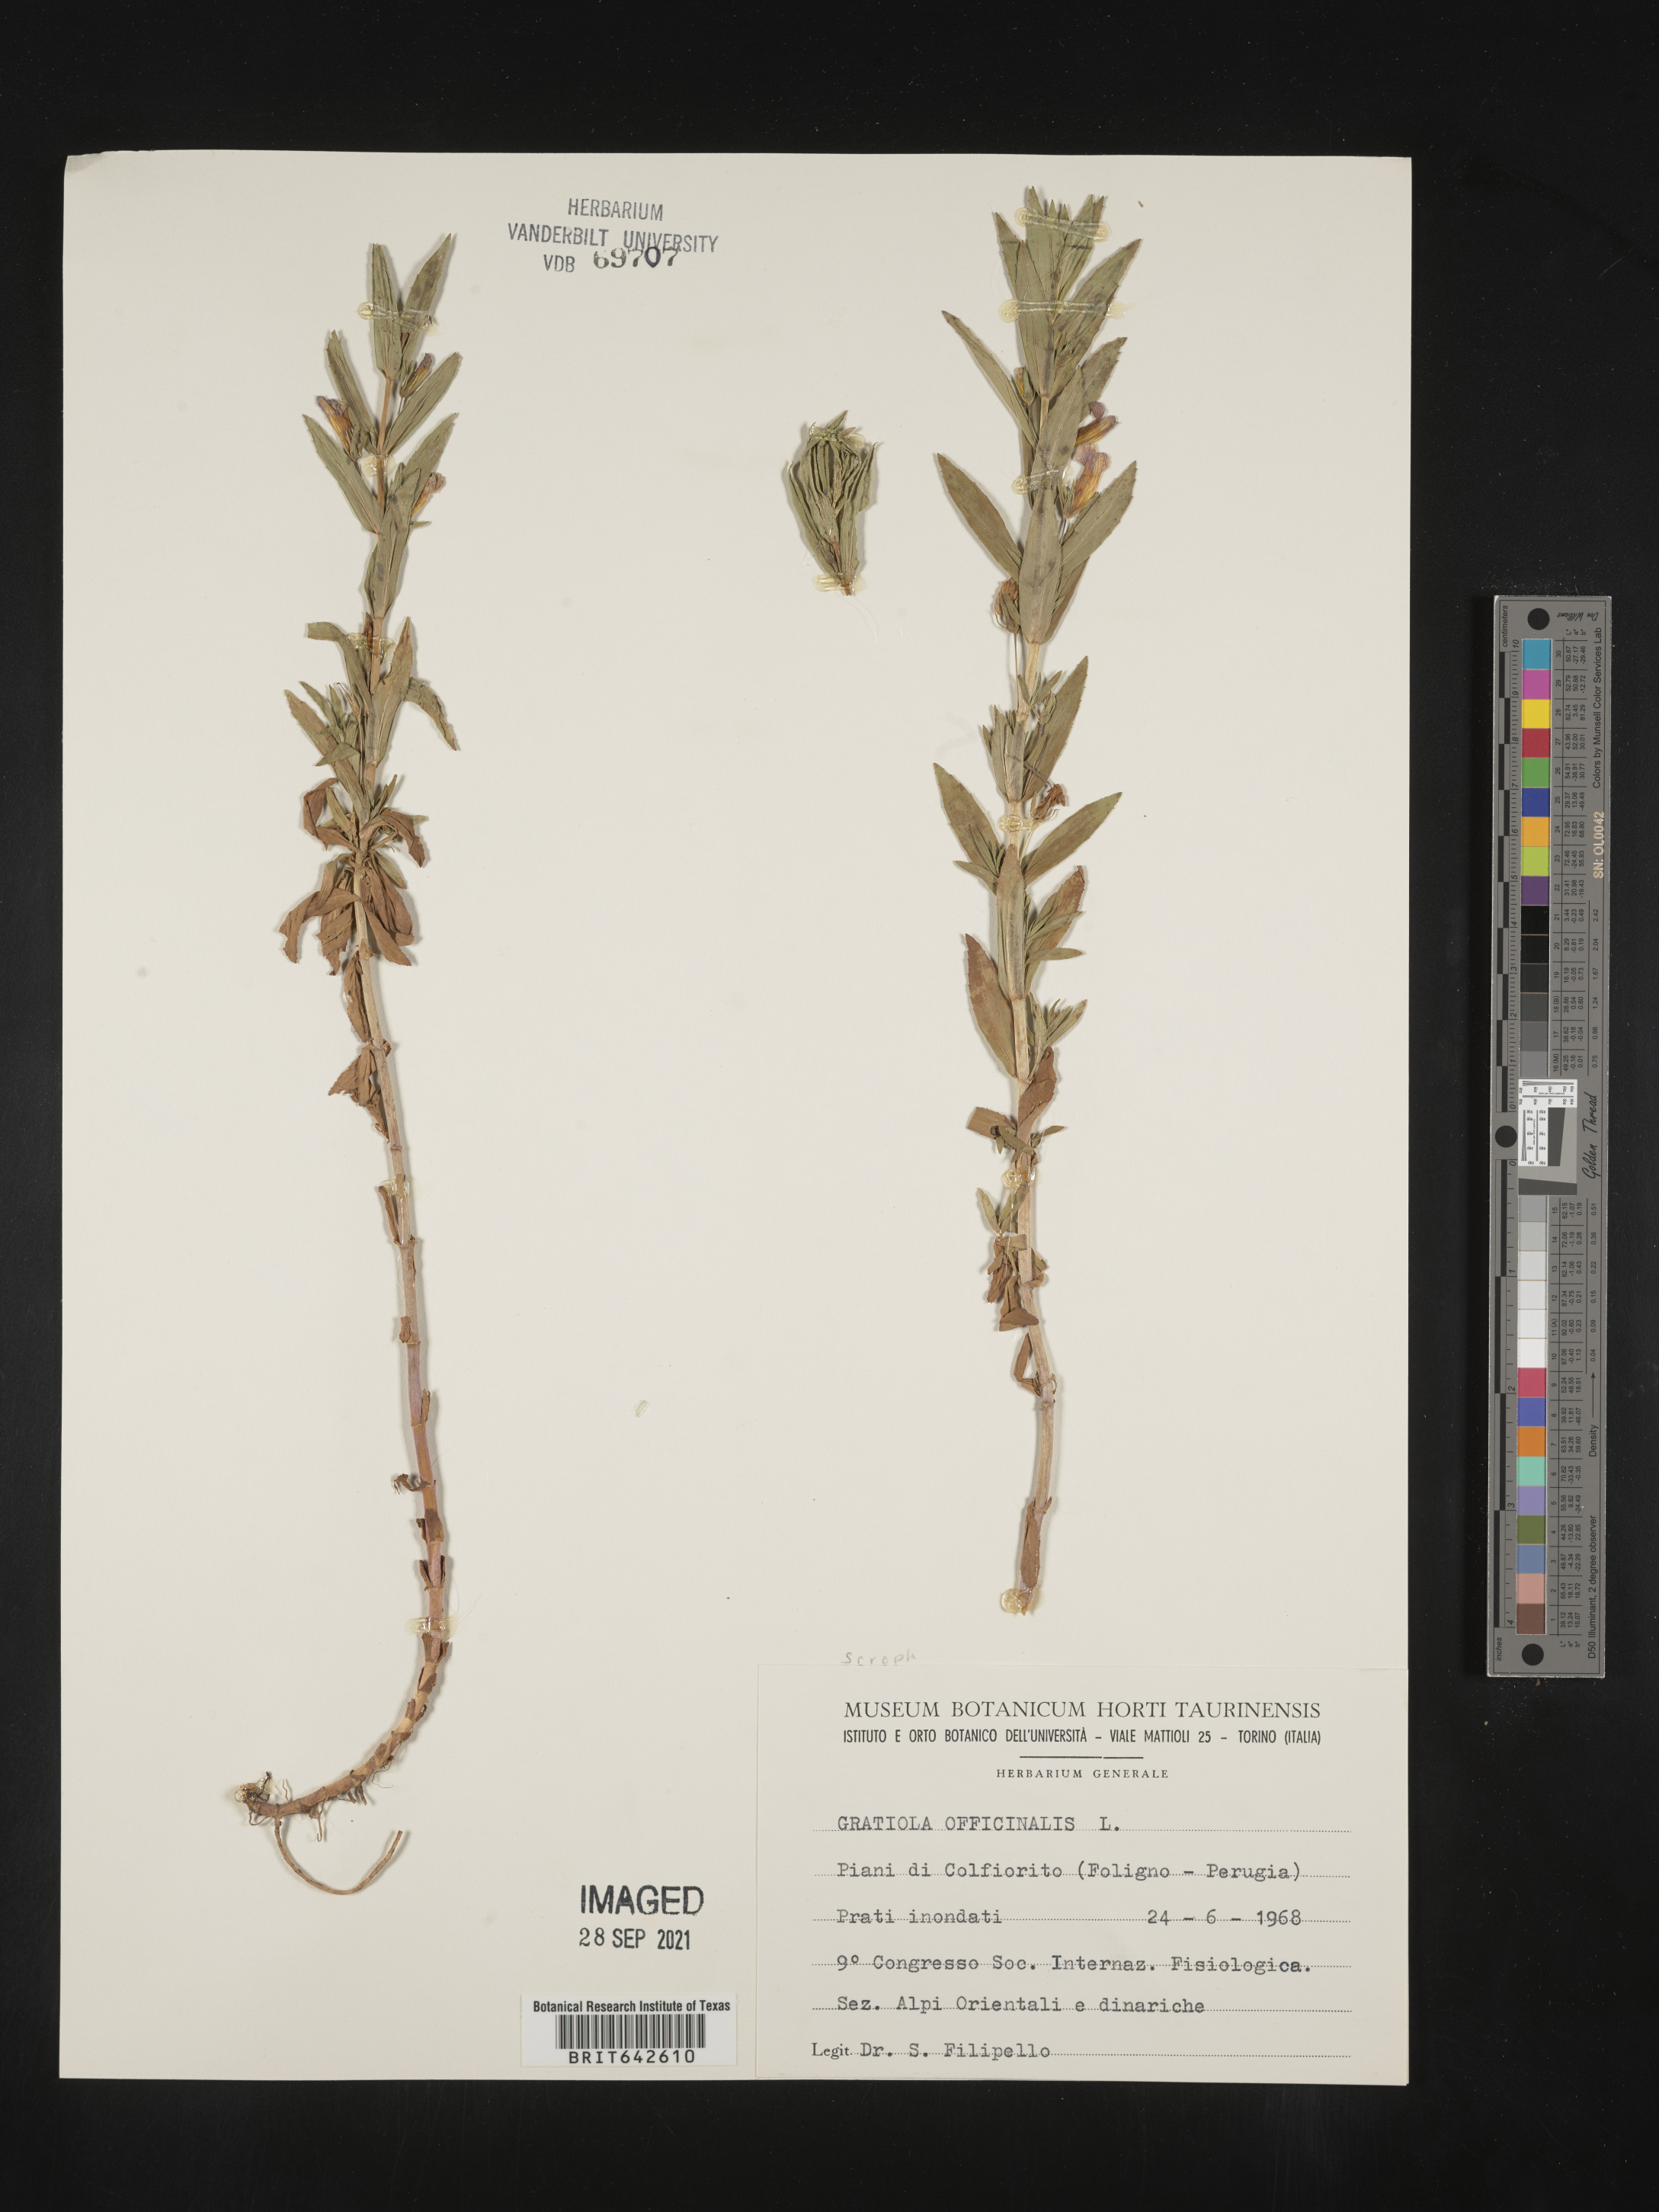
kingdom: Plantae
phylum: Tracheophyta
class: Magnoliopsida
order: Lamiales
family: Plantaginaceae
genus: Gratiola
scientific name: Gratiola
